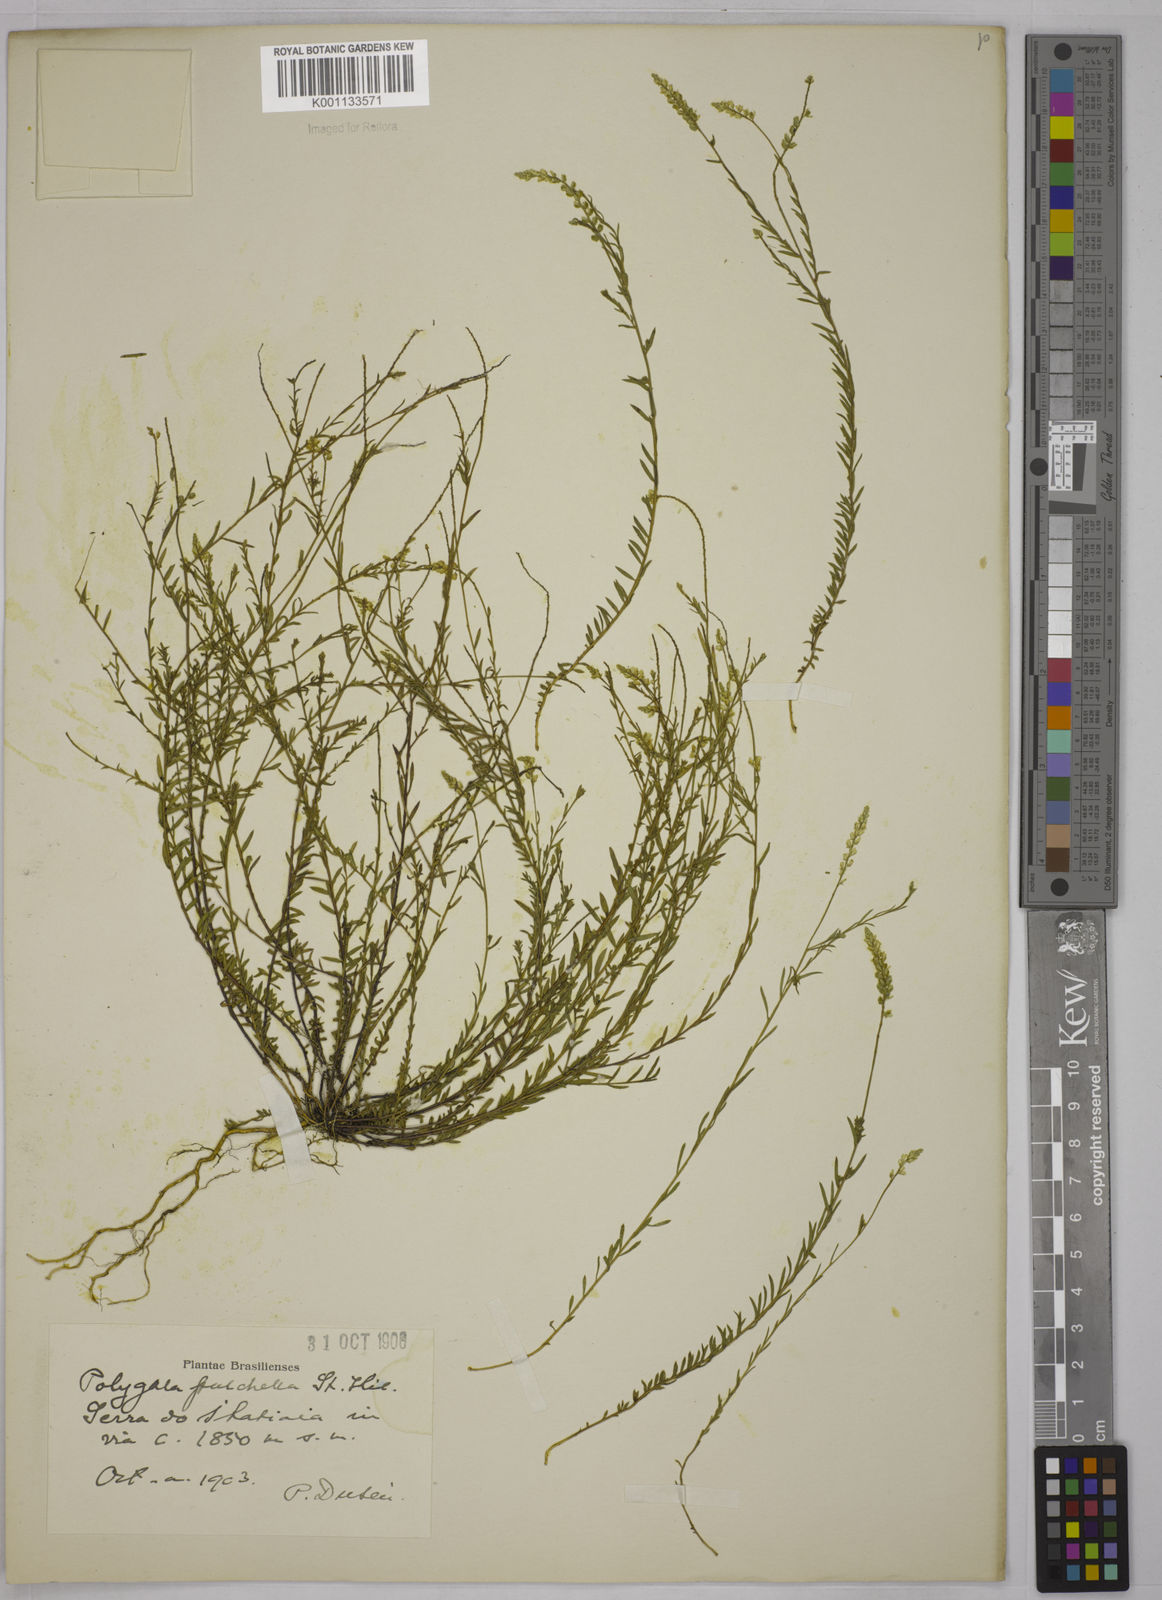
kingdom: Plantae
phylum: Tracheophyta
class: Magnoliopsida
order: Fabales
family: Polygalaceae
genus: Polygala
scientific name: Polygala pulchella
